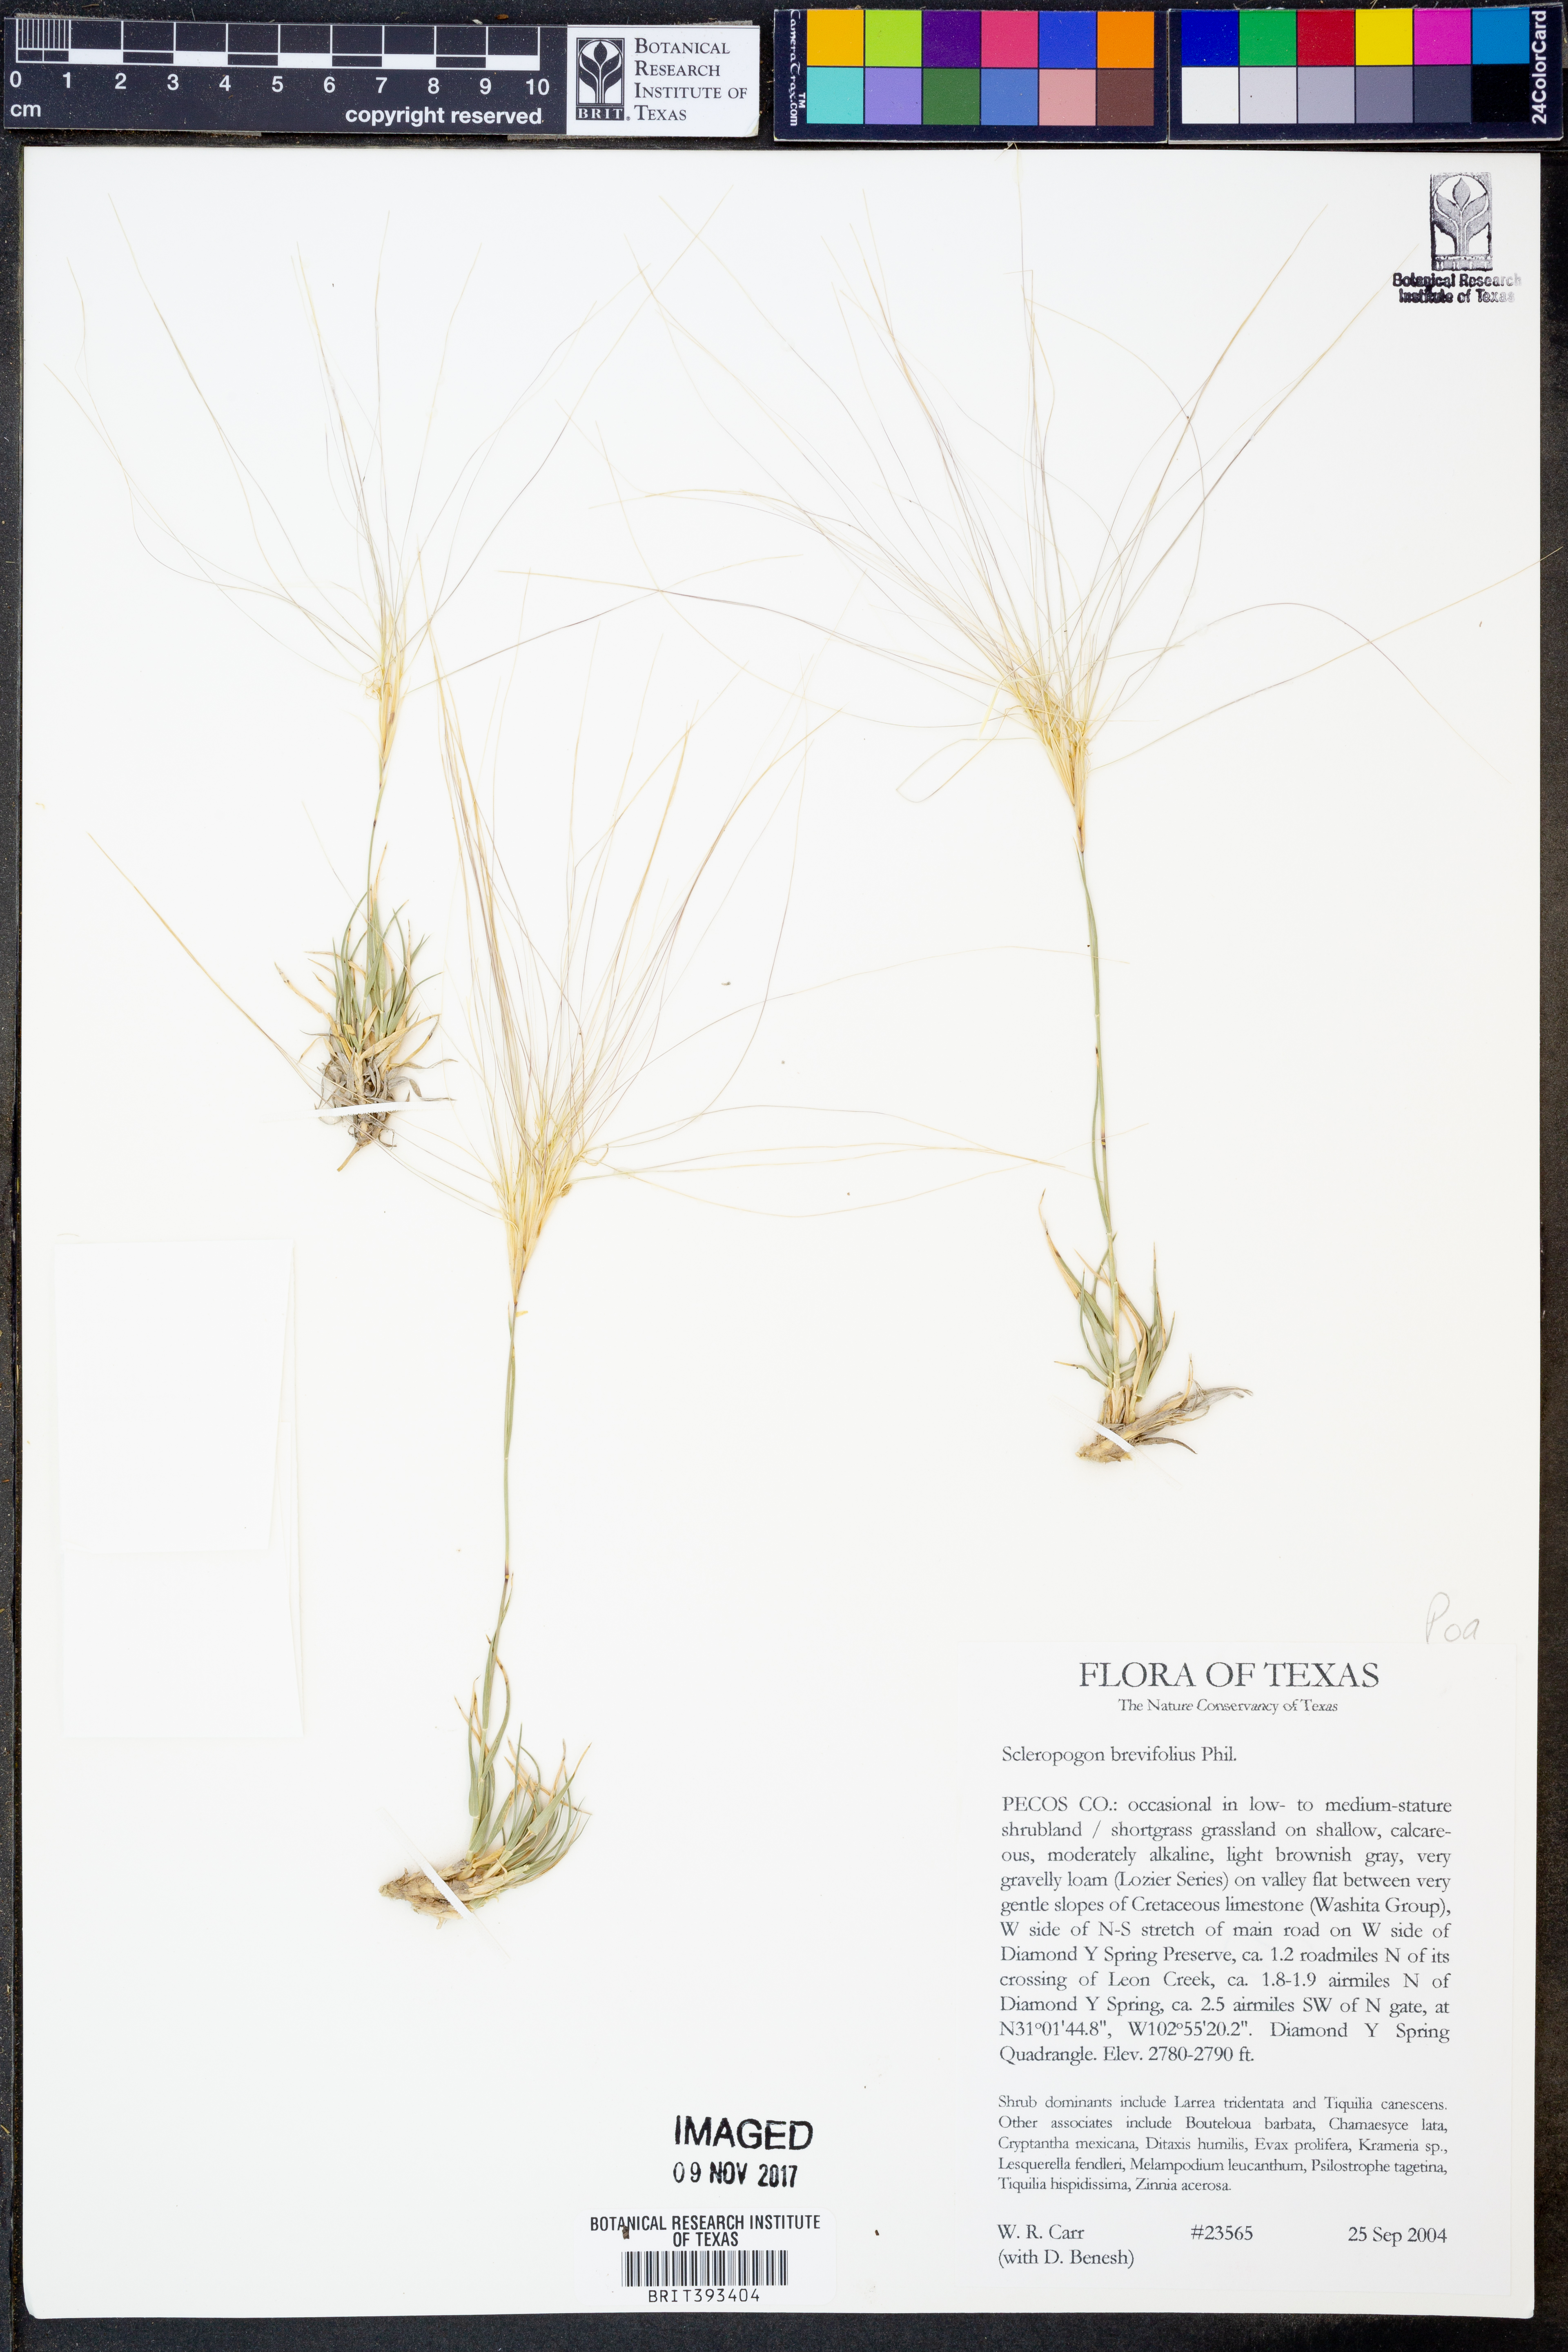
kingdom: Plantae
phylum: Tracheophyta
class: Liliopsida
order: Poales
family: Poaceae
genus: Scleropogon
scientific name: Scleropogon brevifolius
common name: Burro grass
